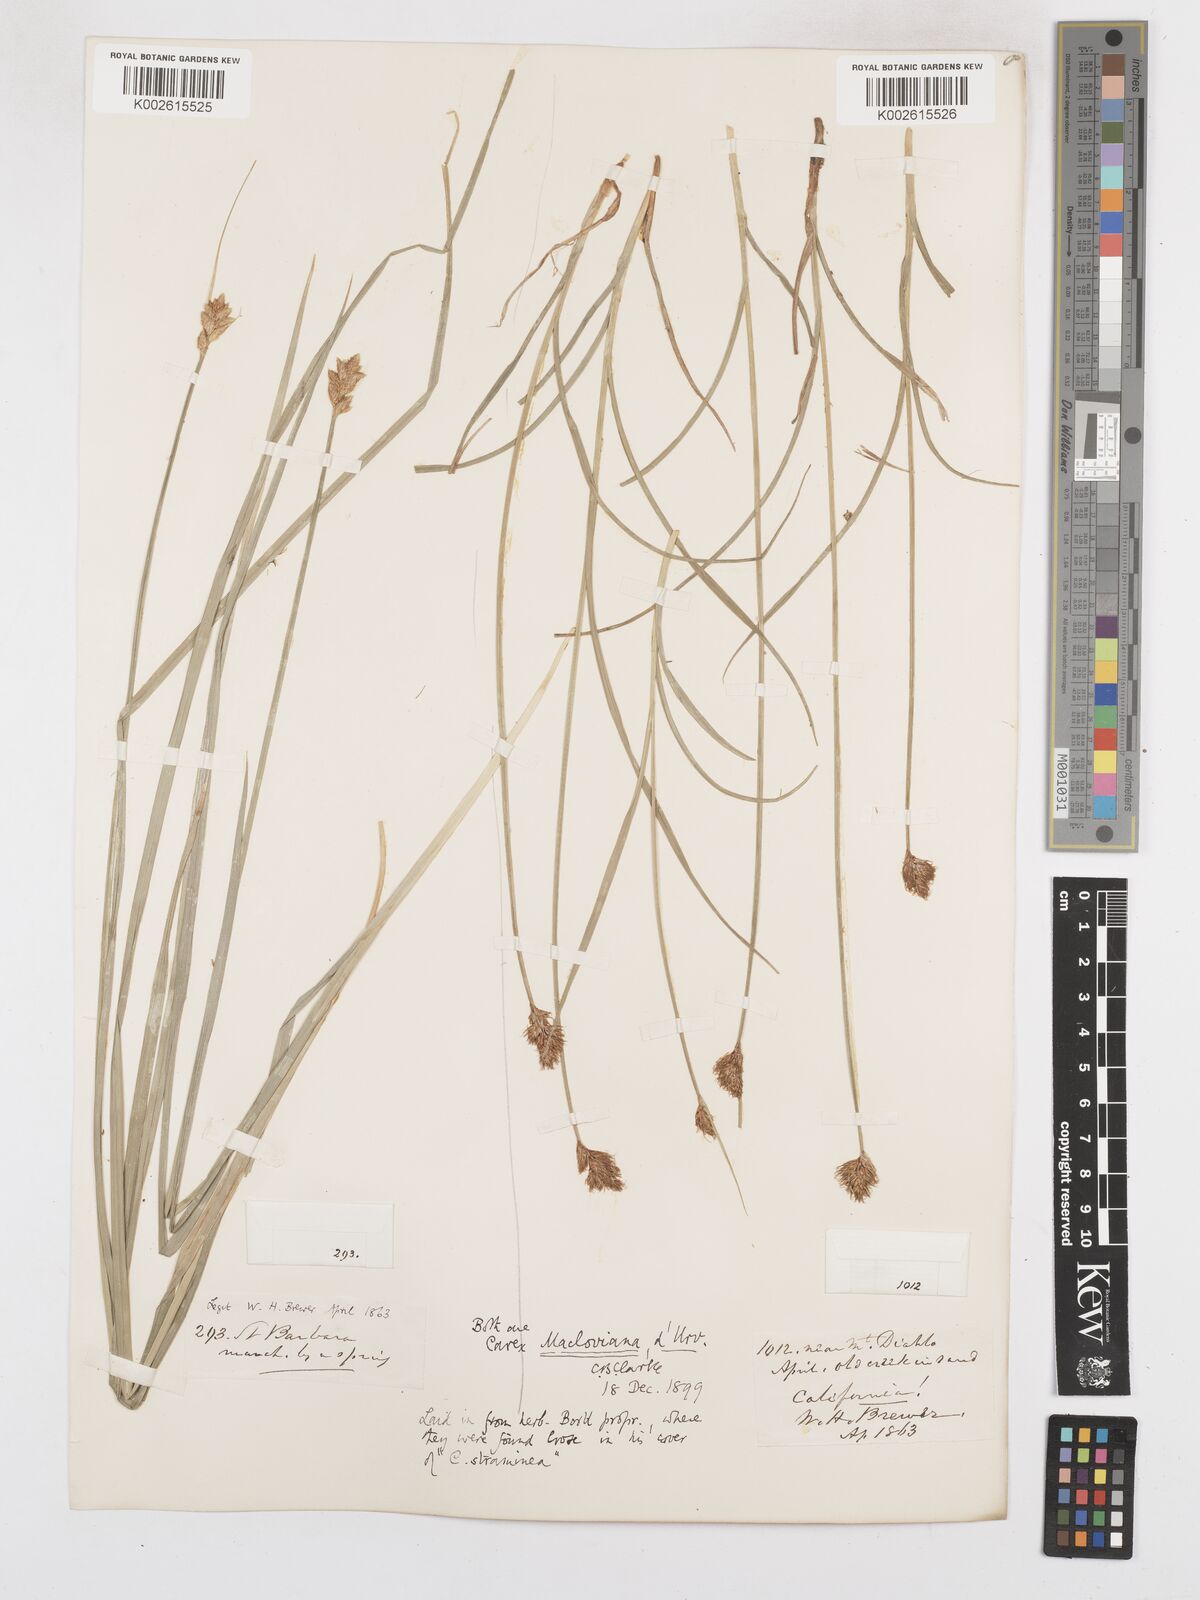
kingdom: Plantae
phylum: Tracheophyta
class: Liliopsida
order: Poales
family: Cyperaceae
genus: Carex
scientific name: Carex macloviana
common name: Falkland island sedge
